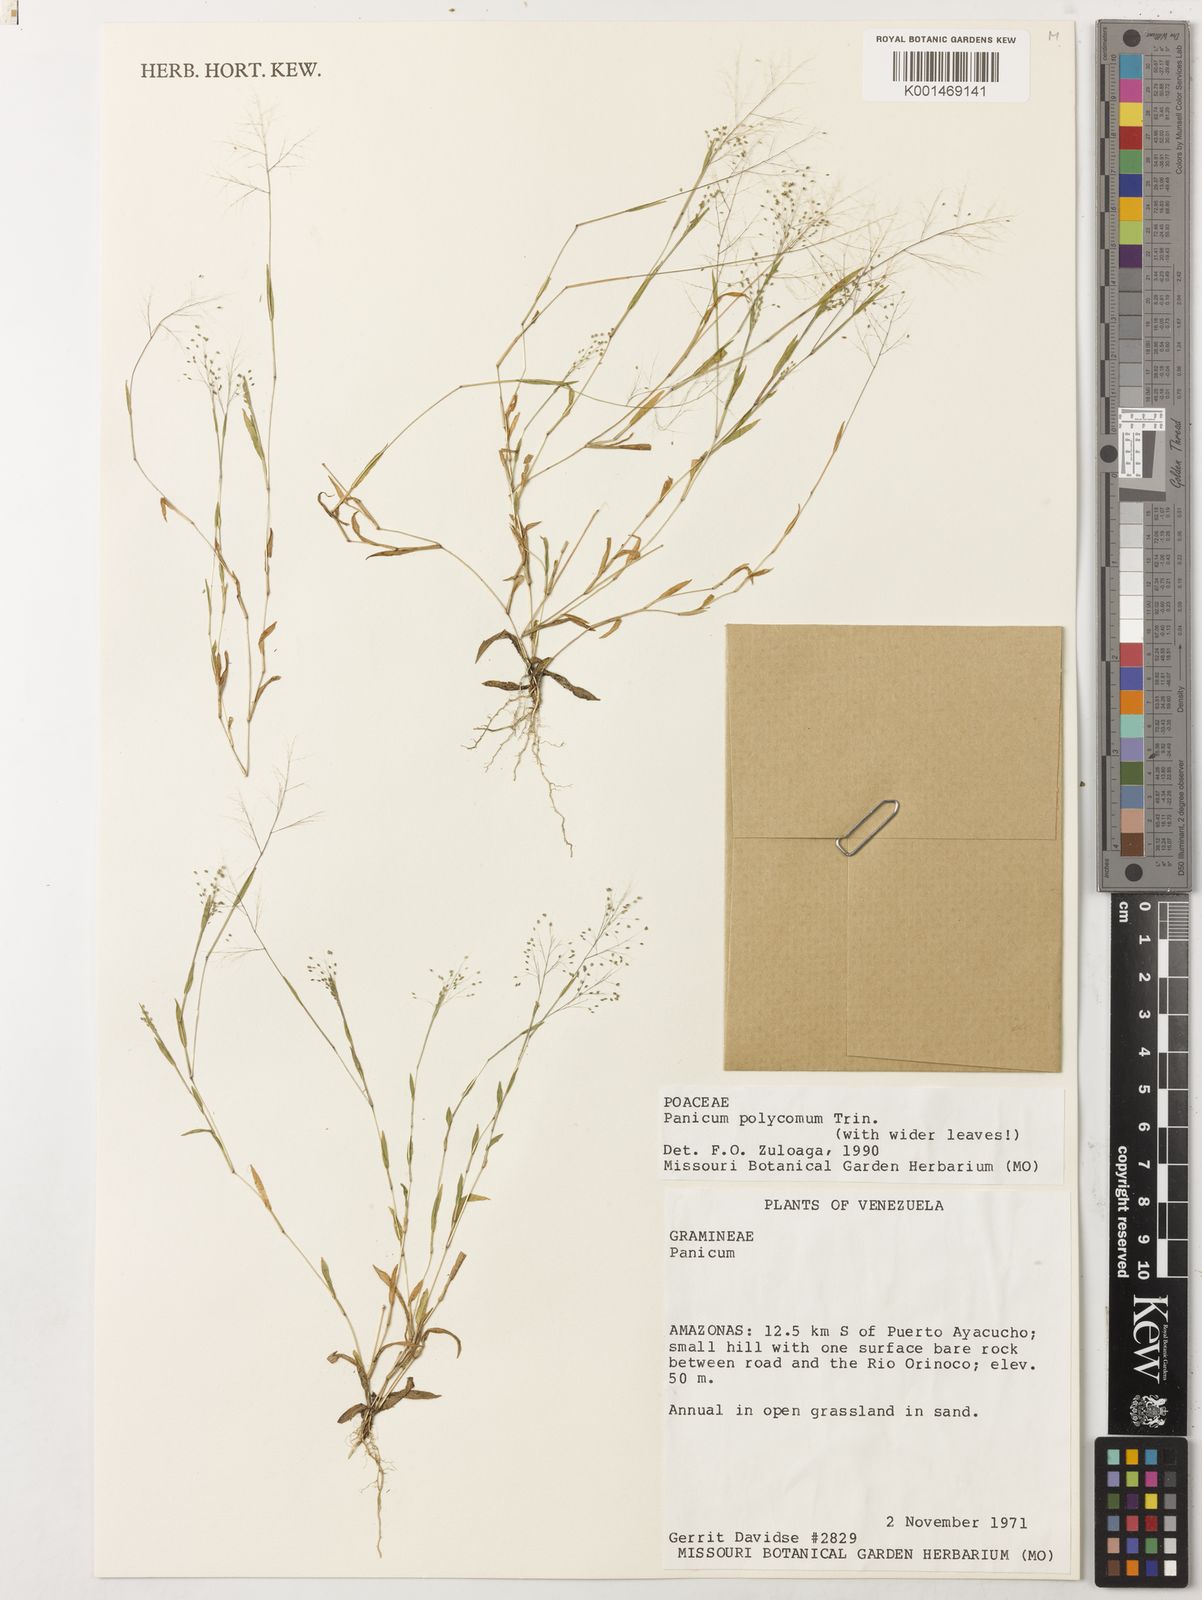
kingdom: Plantae
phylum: Tracheophyta
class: Liliopsida
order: Poales
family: Poaceae
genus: Trichanthecium
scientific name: Trichanthecium polycomum
